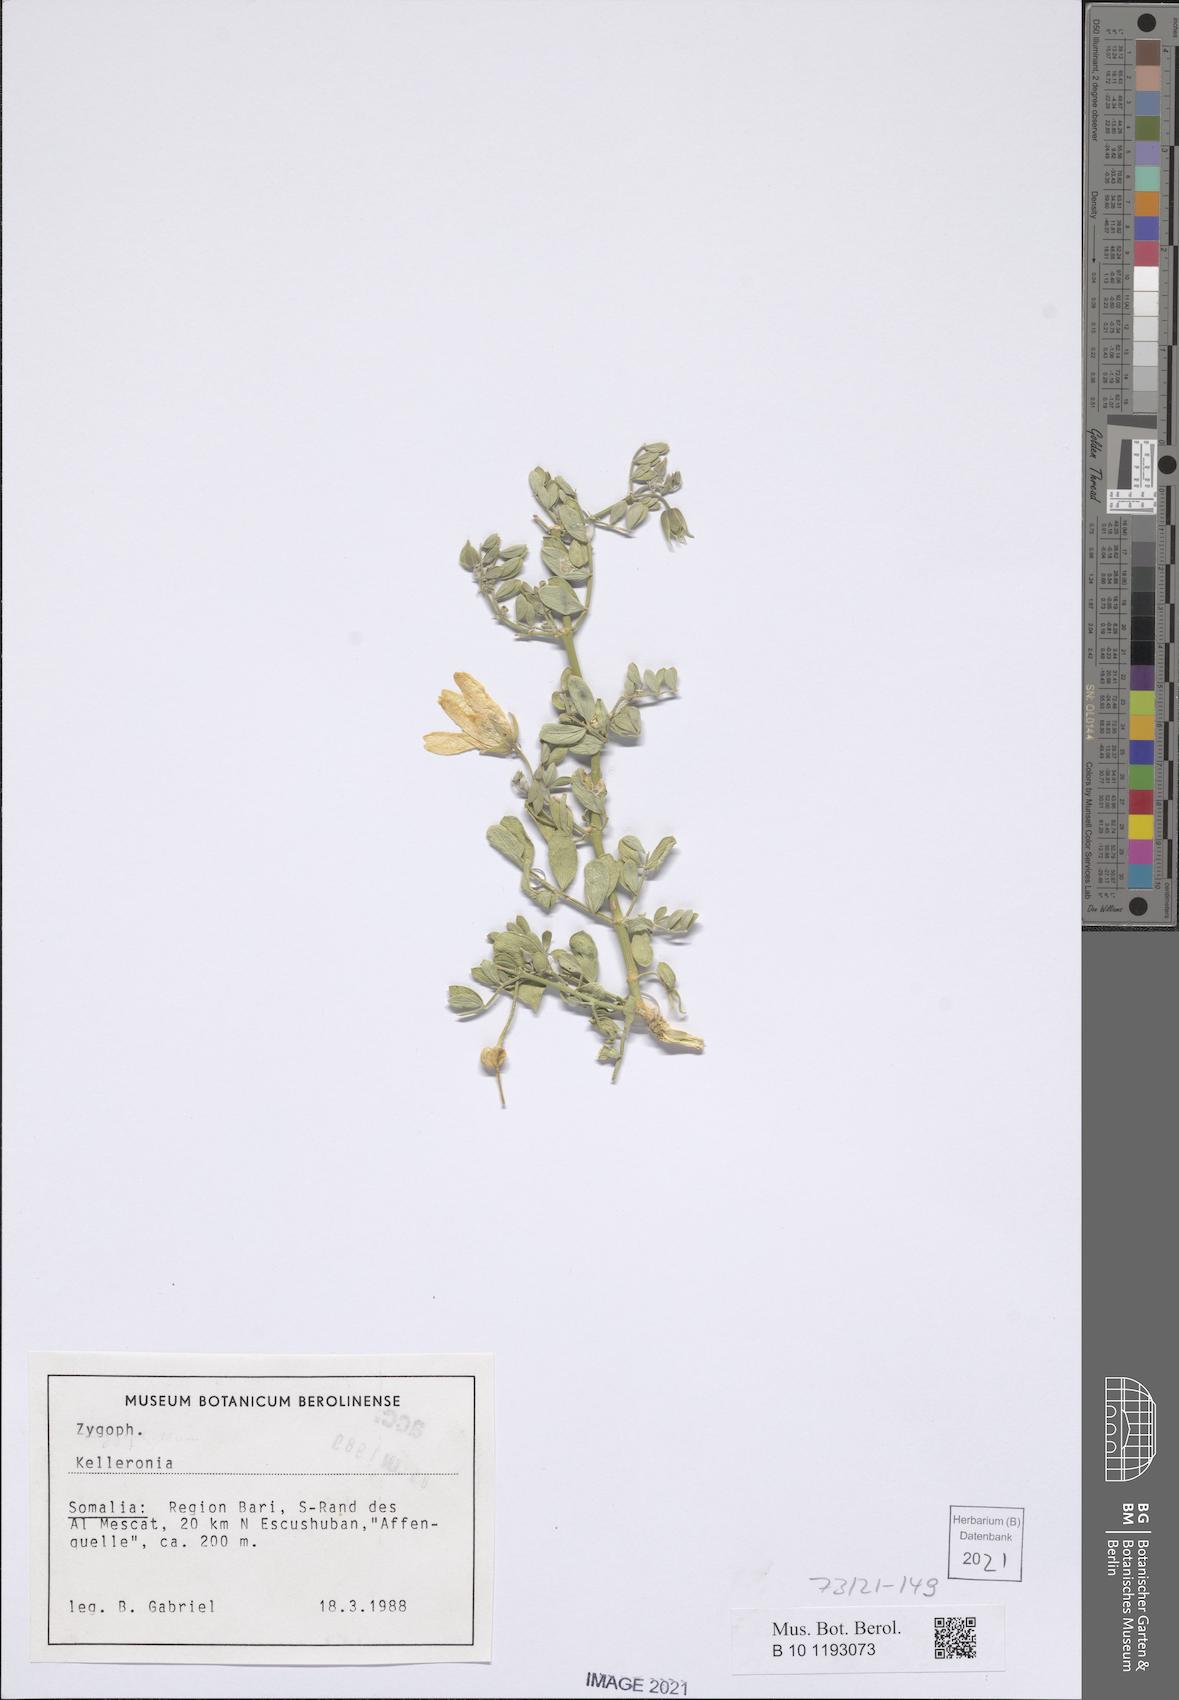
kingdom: Plantae
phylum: Tracheophyta
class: Magnoliopsida
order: Zygophyllales
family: Zygophyllaceae
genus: Kelleronia
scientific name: Kelleronia
